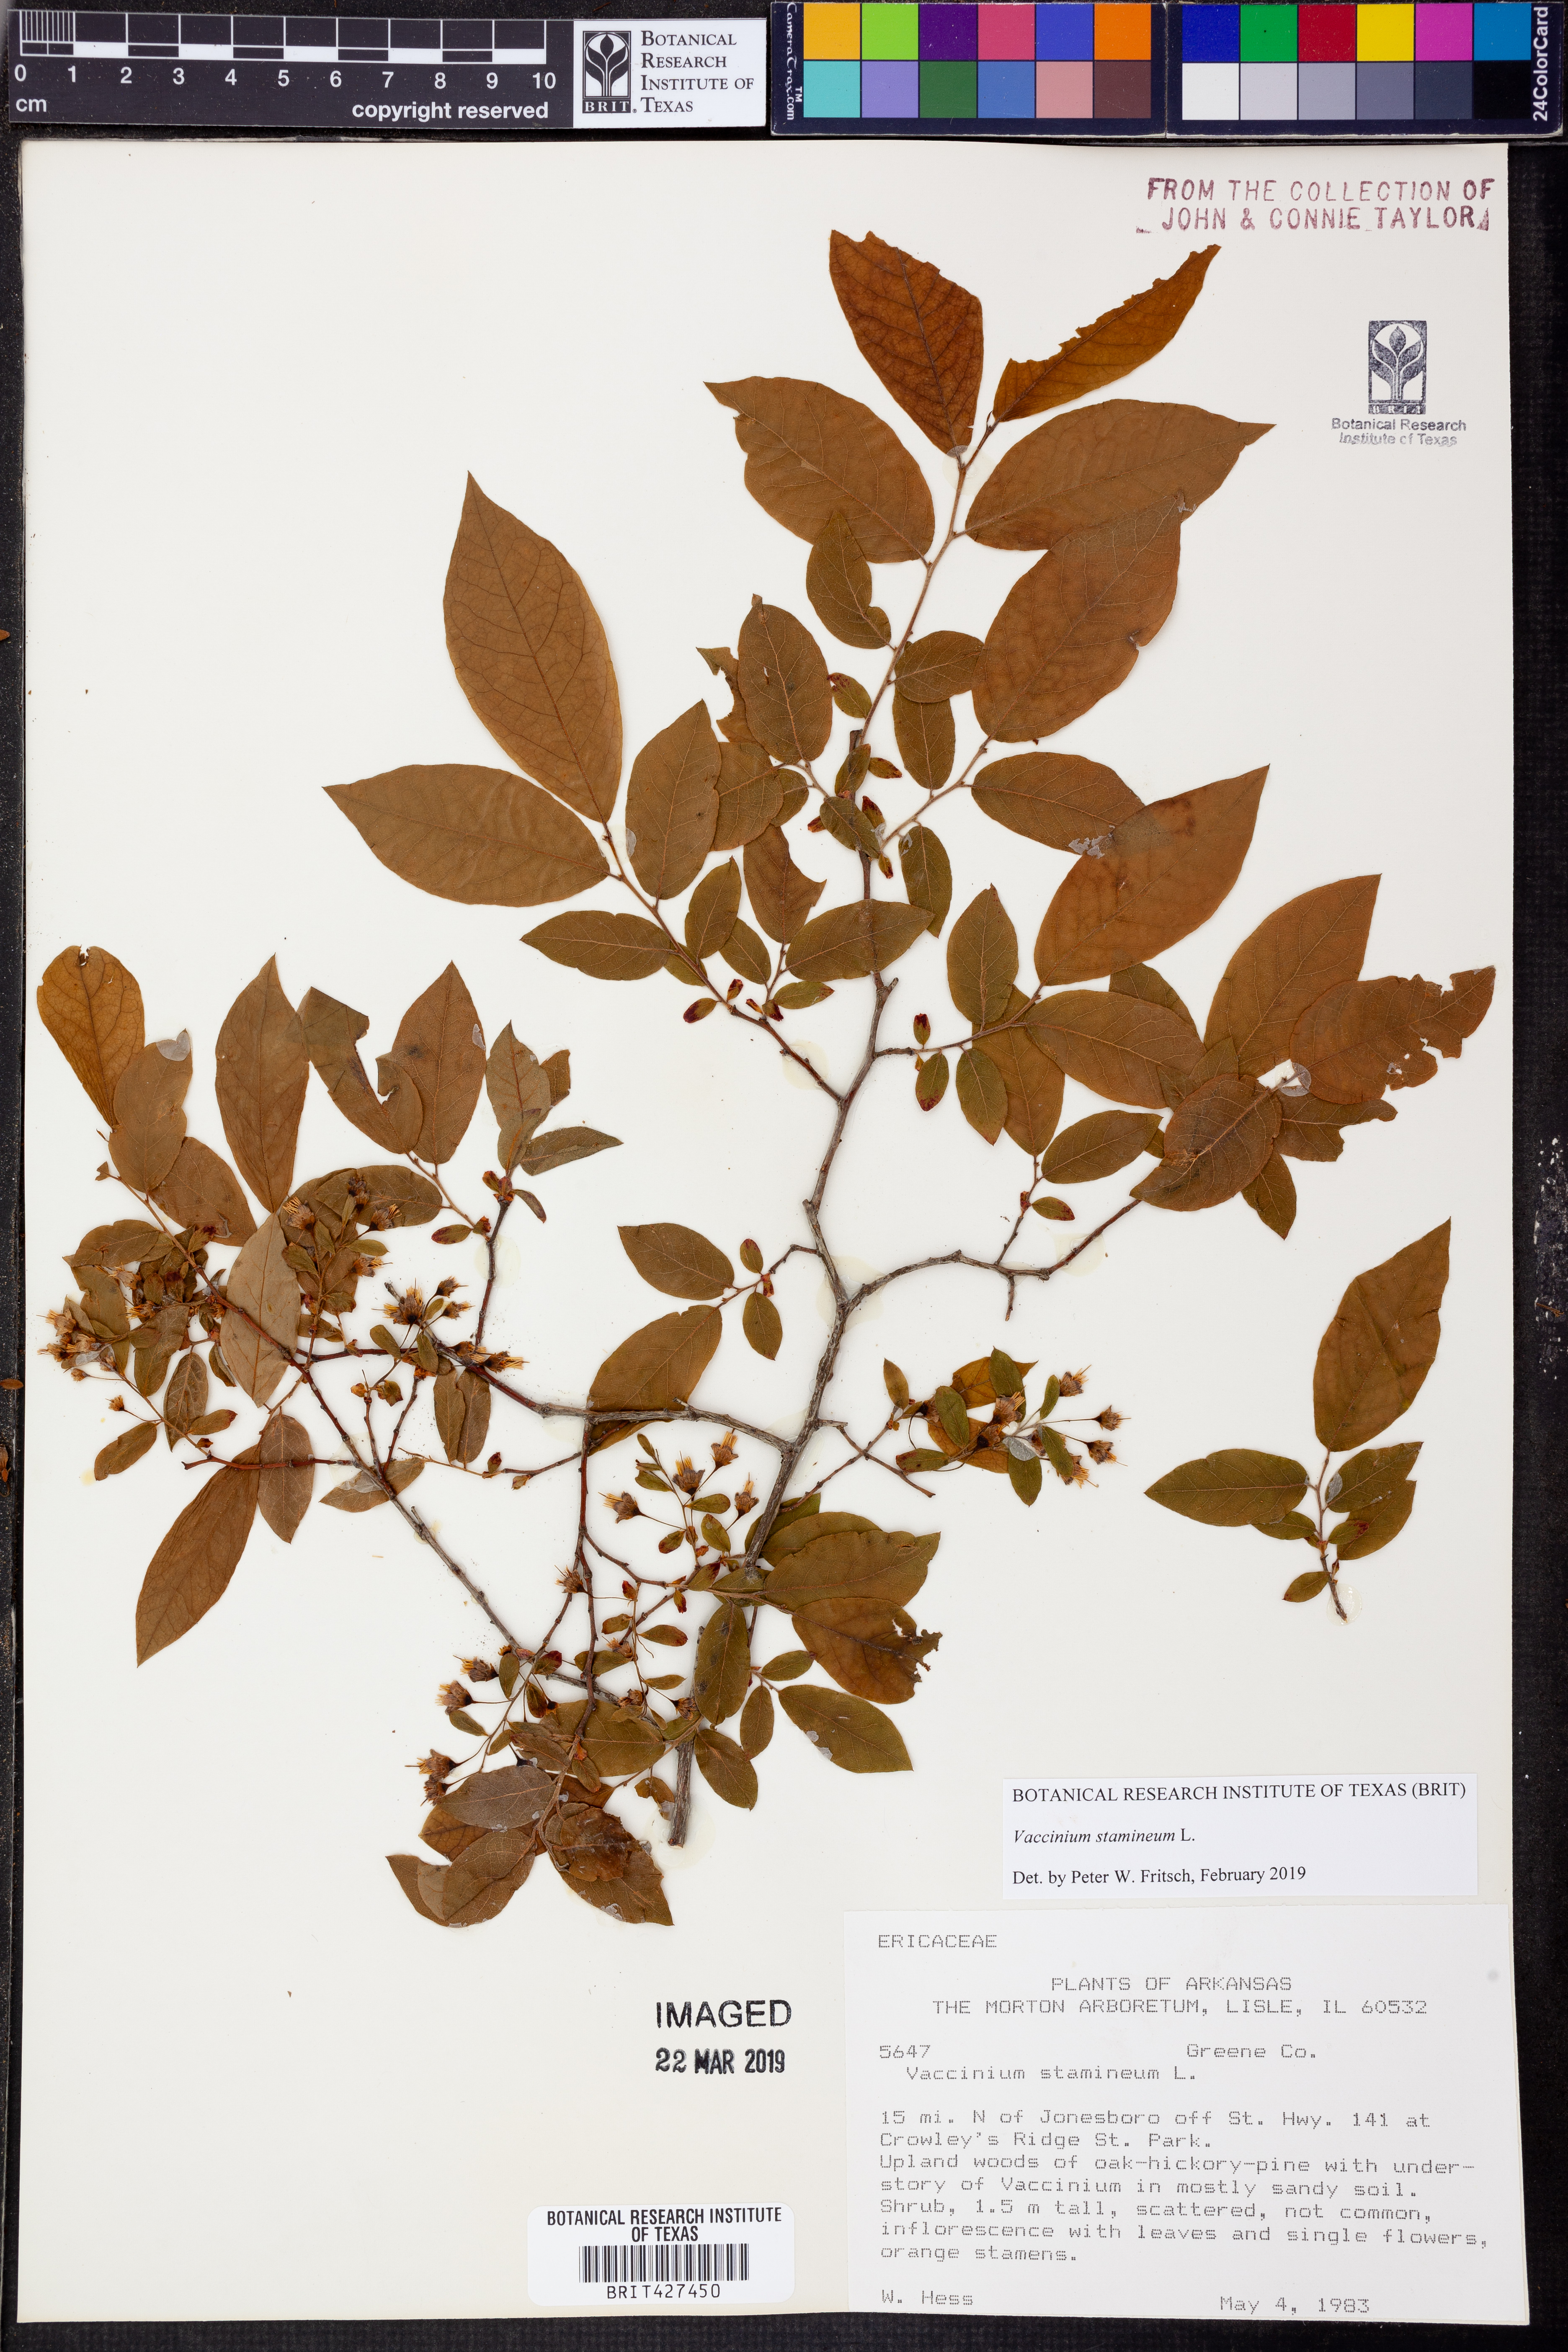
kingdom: Plantae
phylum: Tracheophyta
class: Magnoliopsida
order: Ericales
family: Ericaceae
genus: Vaccinium
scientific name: Vaccinium stamineum
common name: Deerberry
